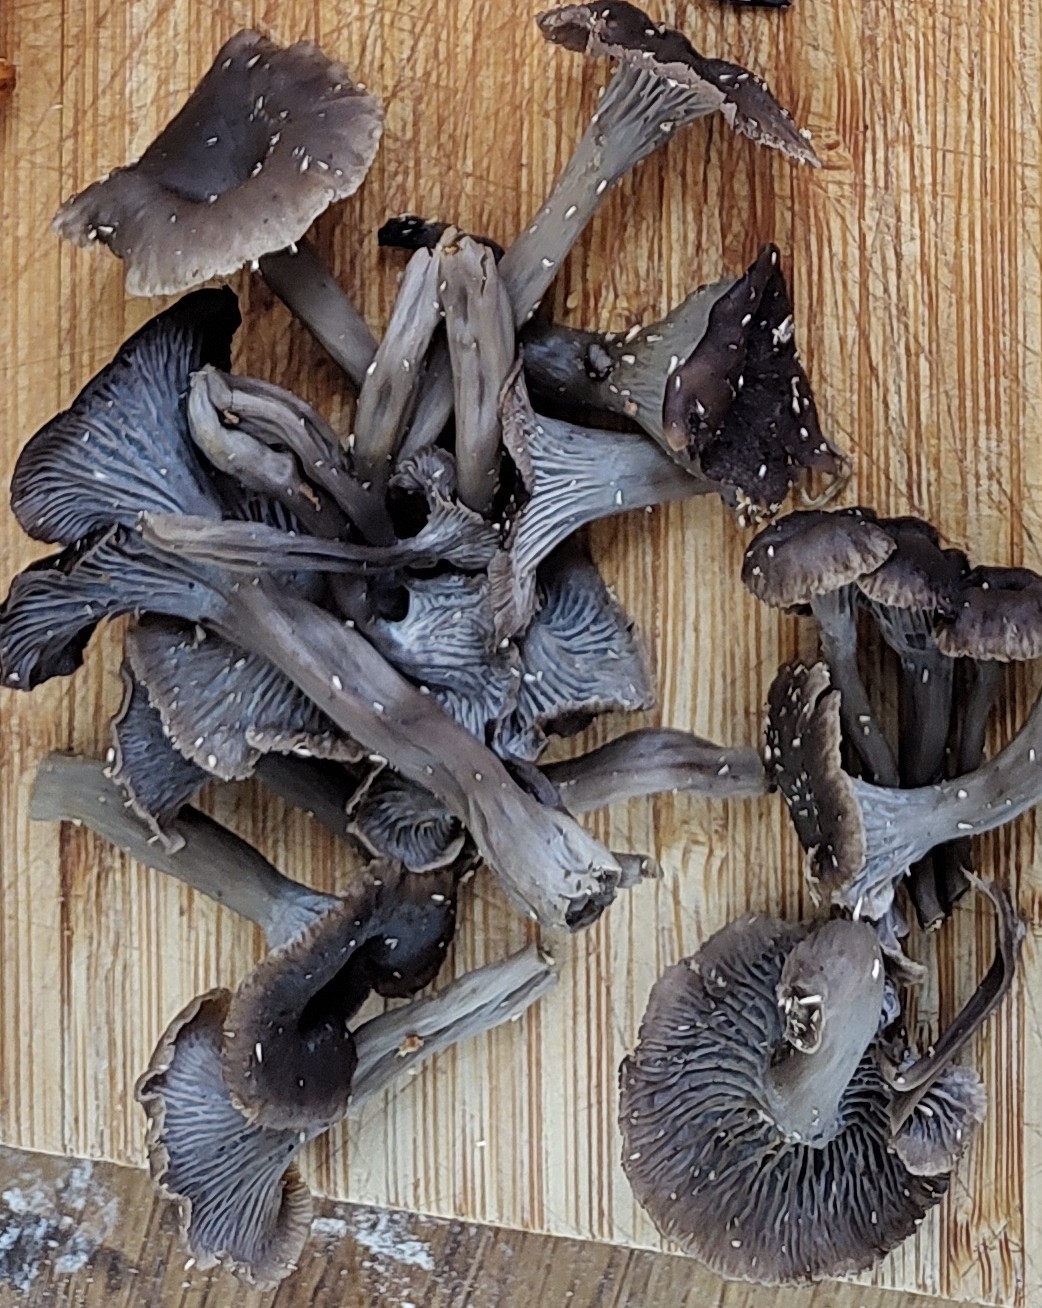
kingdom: Fungi
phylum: Basidiomycota
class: Agaricomycetes
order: Cantharellales
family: Hydnaceae
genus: Cantharellus
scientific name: Cantharellus cinereus
